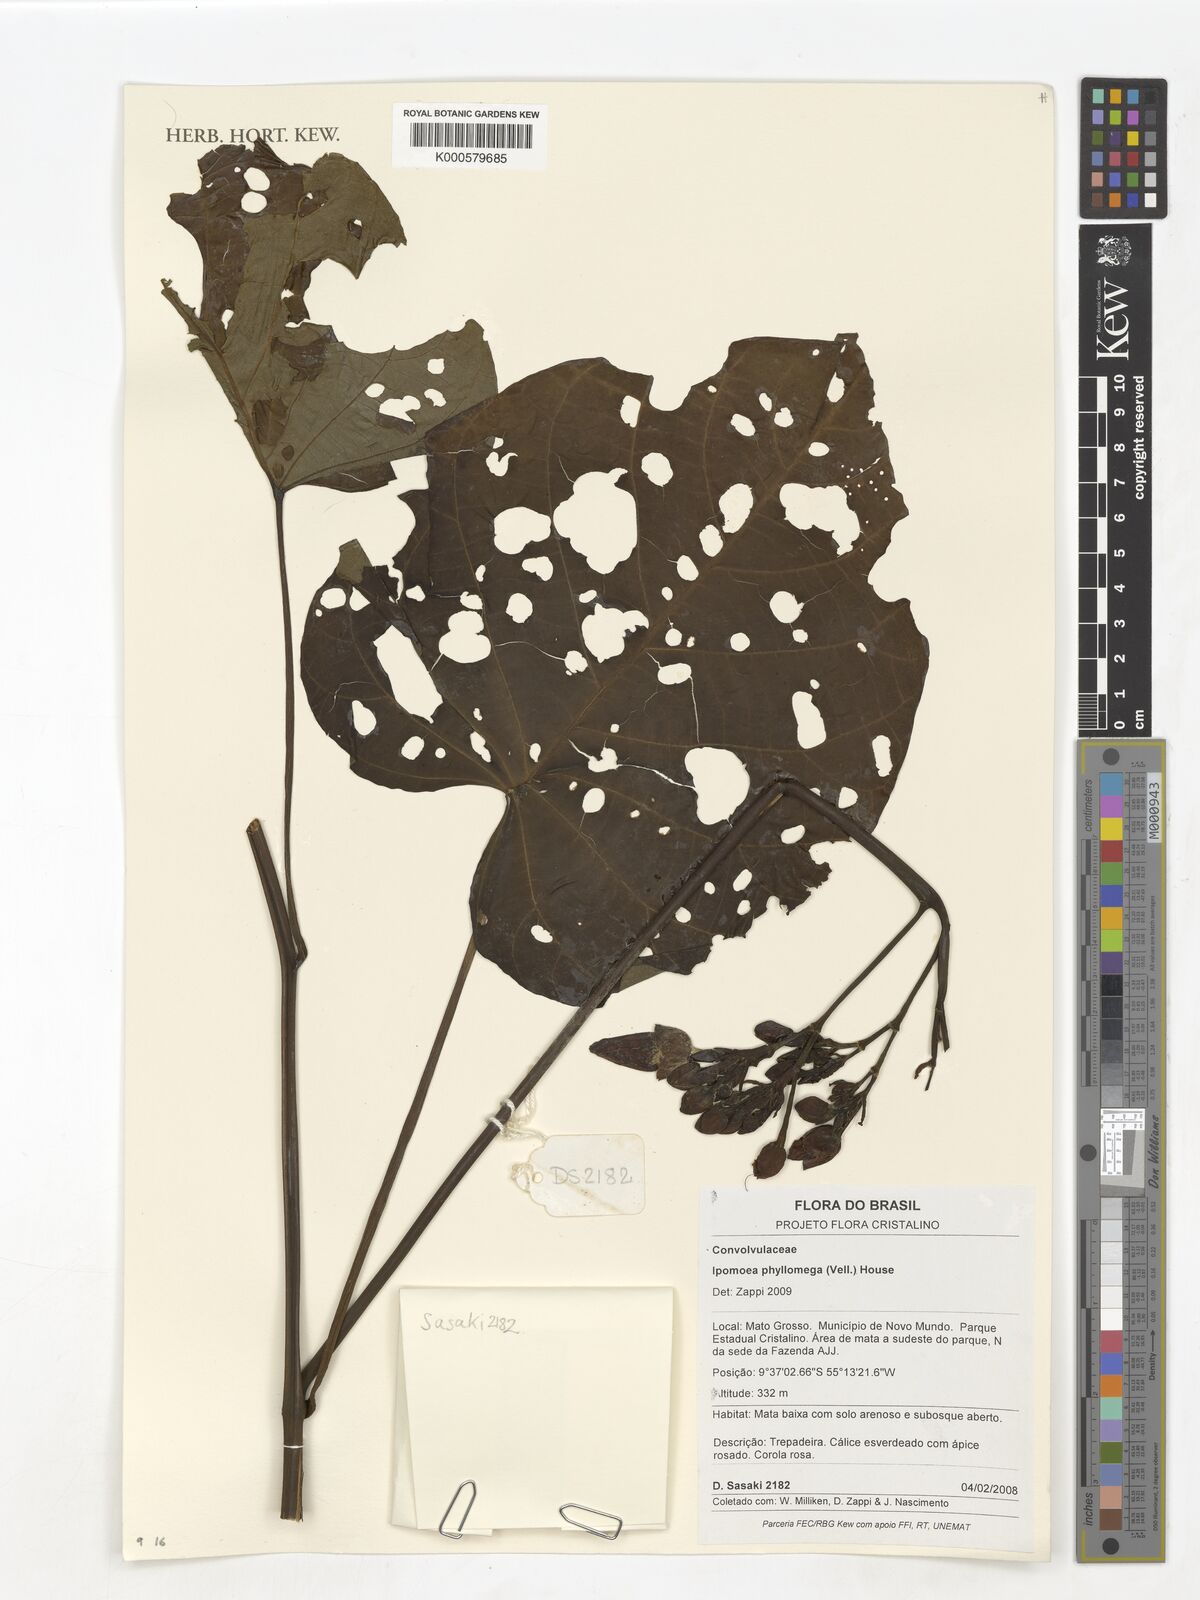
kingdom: Plantae
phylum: Tracheophyta
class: Magnoliopsida
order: Solanales
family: Convolvulaceae
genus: Ipomoea
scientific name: Ipomoea philomega
